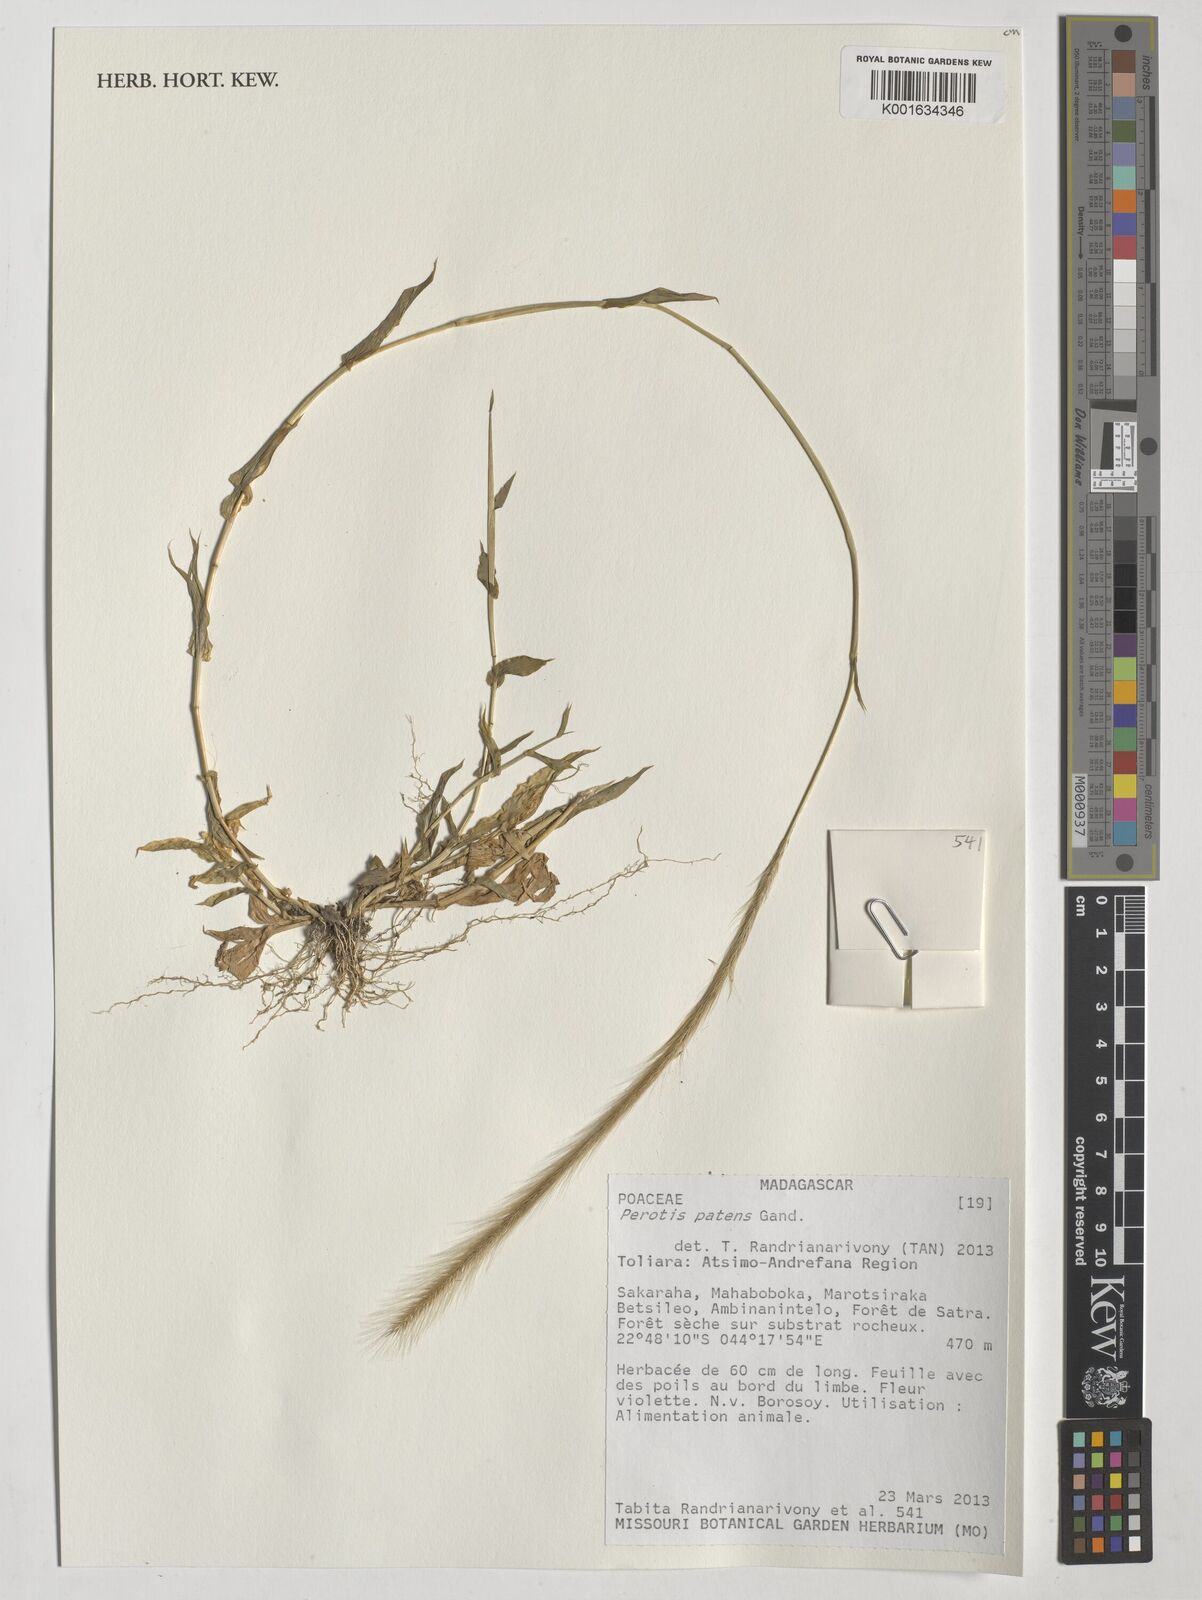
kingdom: Plantae
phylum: Tracheophyta
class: Liliopsida
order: Poales
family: Poaceae
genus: Perotis
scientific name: Perotis patens
